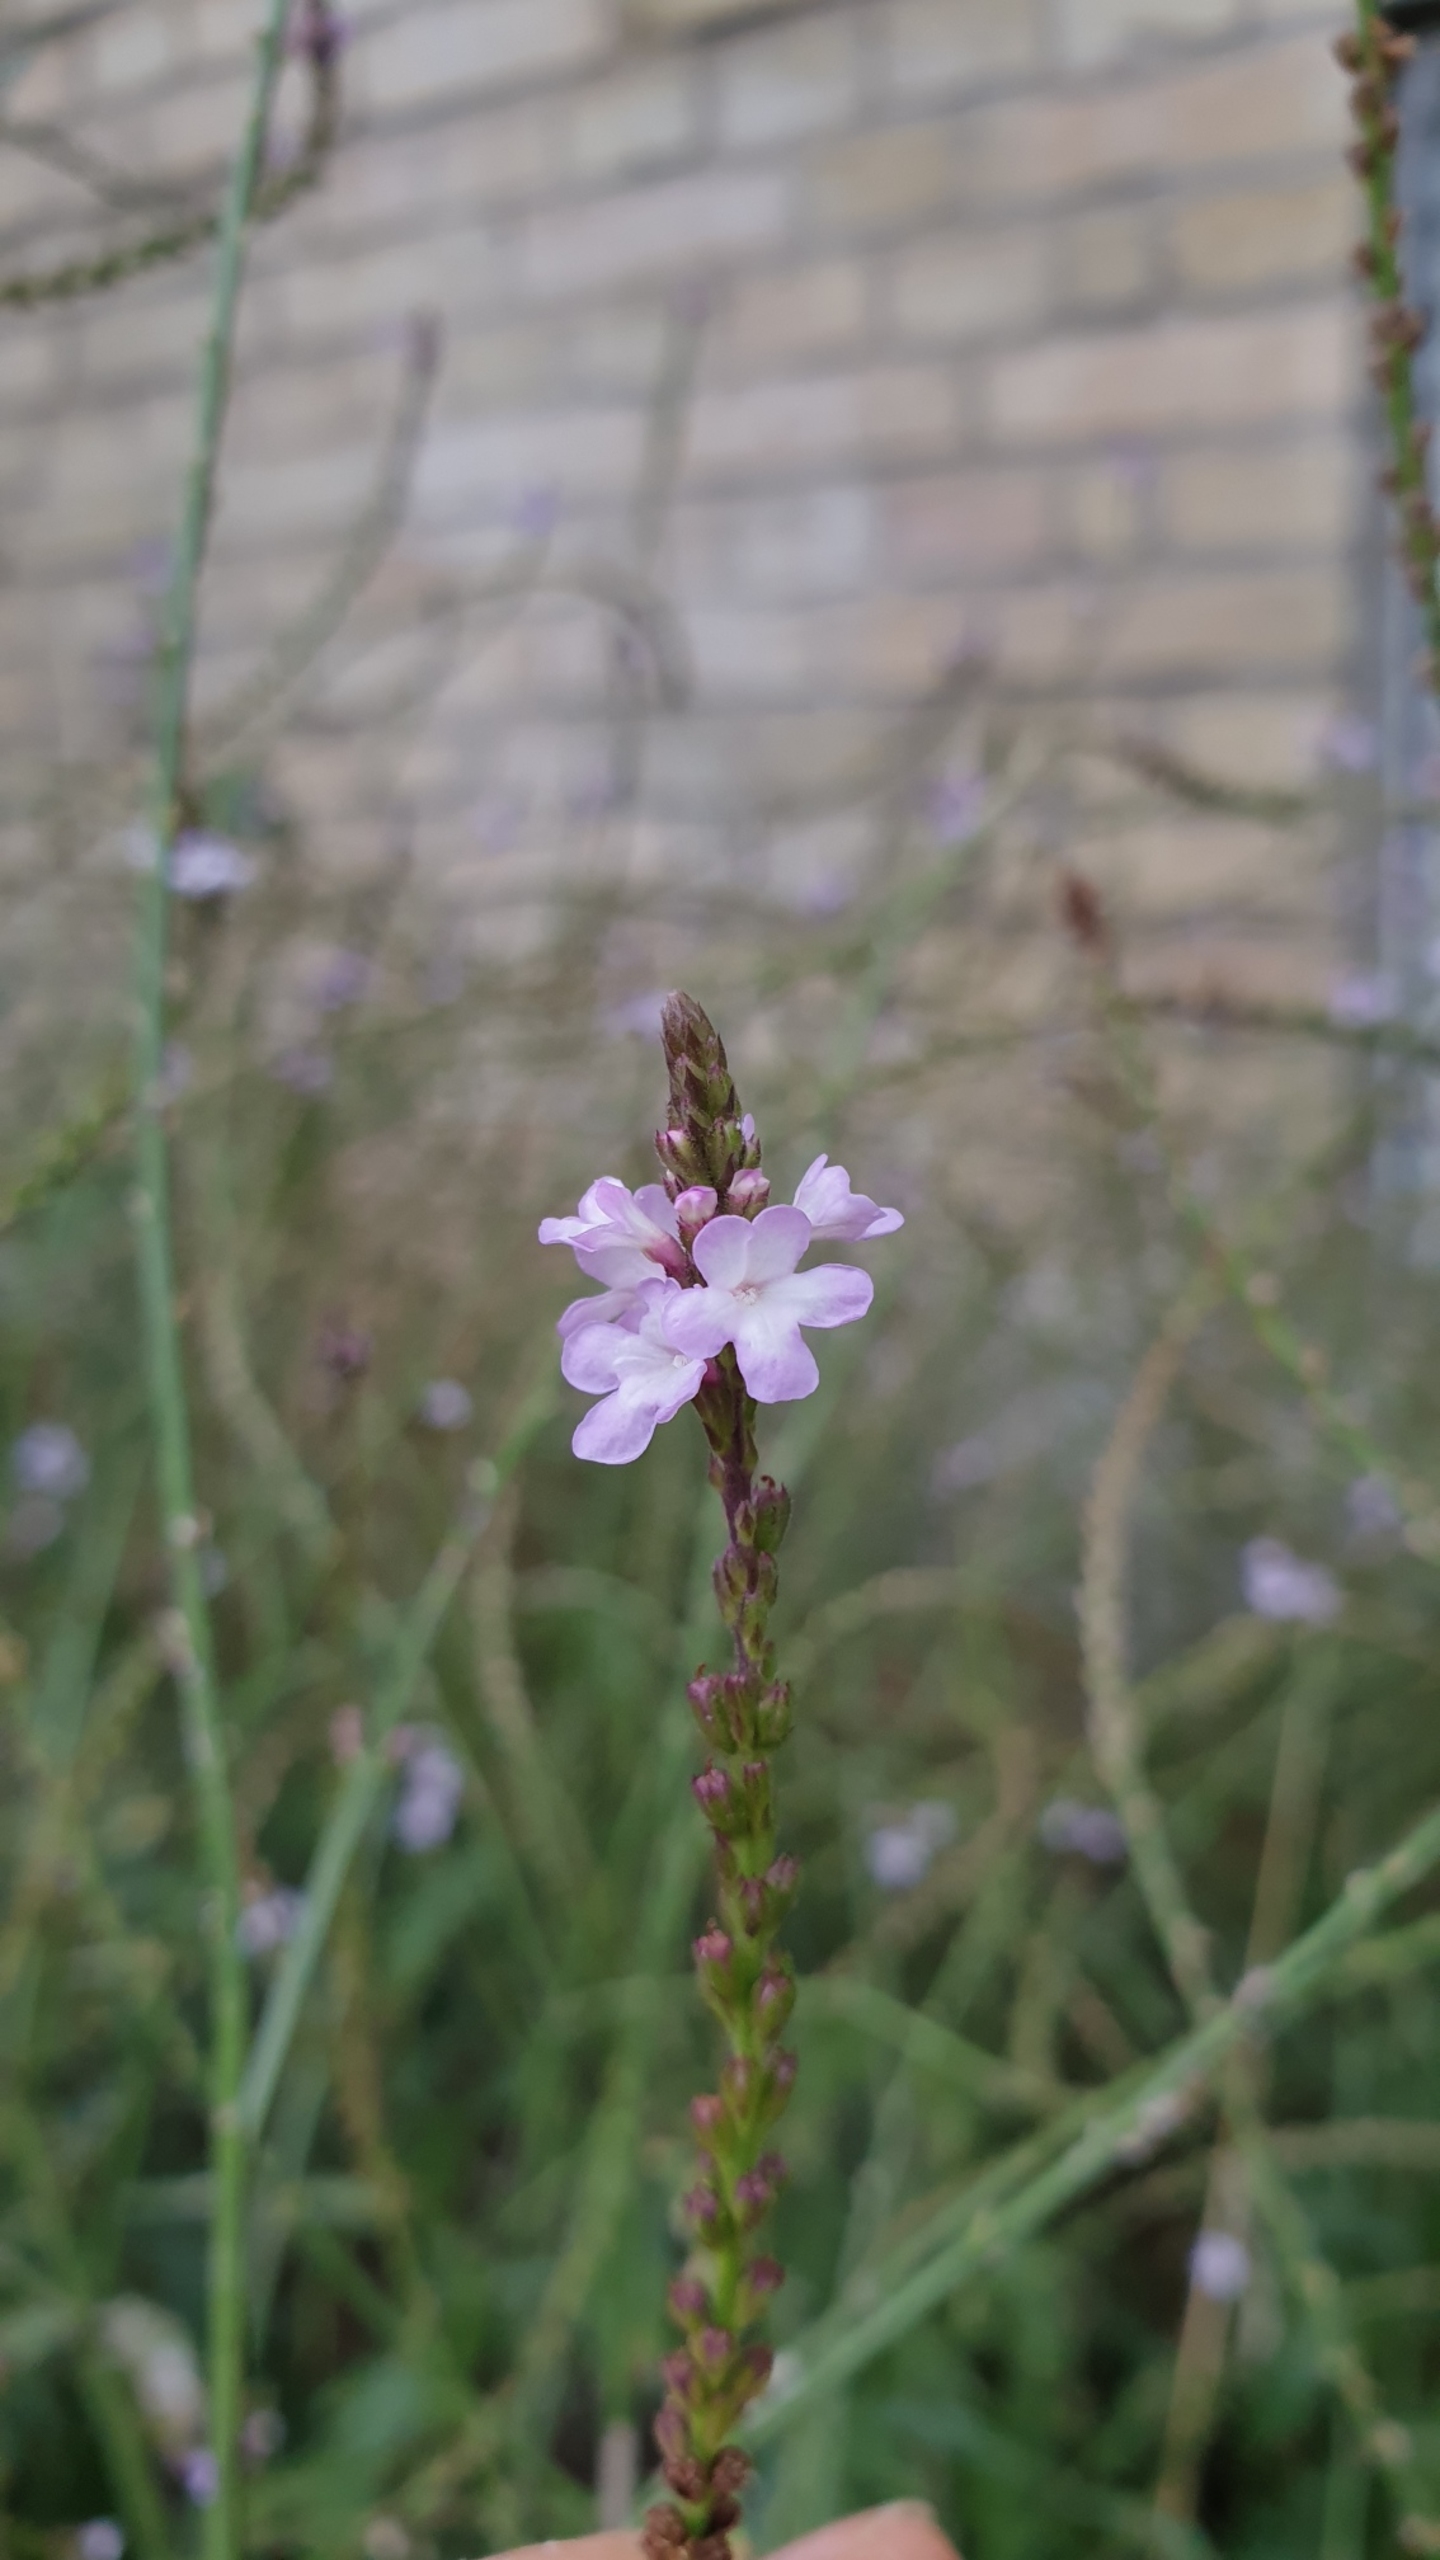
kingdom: Plantae
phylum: Tracheophyta
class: Magnoliopsida
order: Lamiales
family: Verbenaceae
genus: Verbena
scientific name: Verbena officinalis
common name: Læge-jernurt
